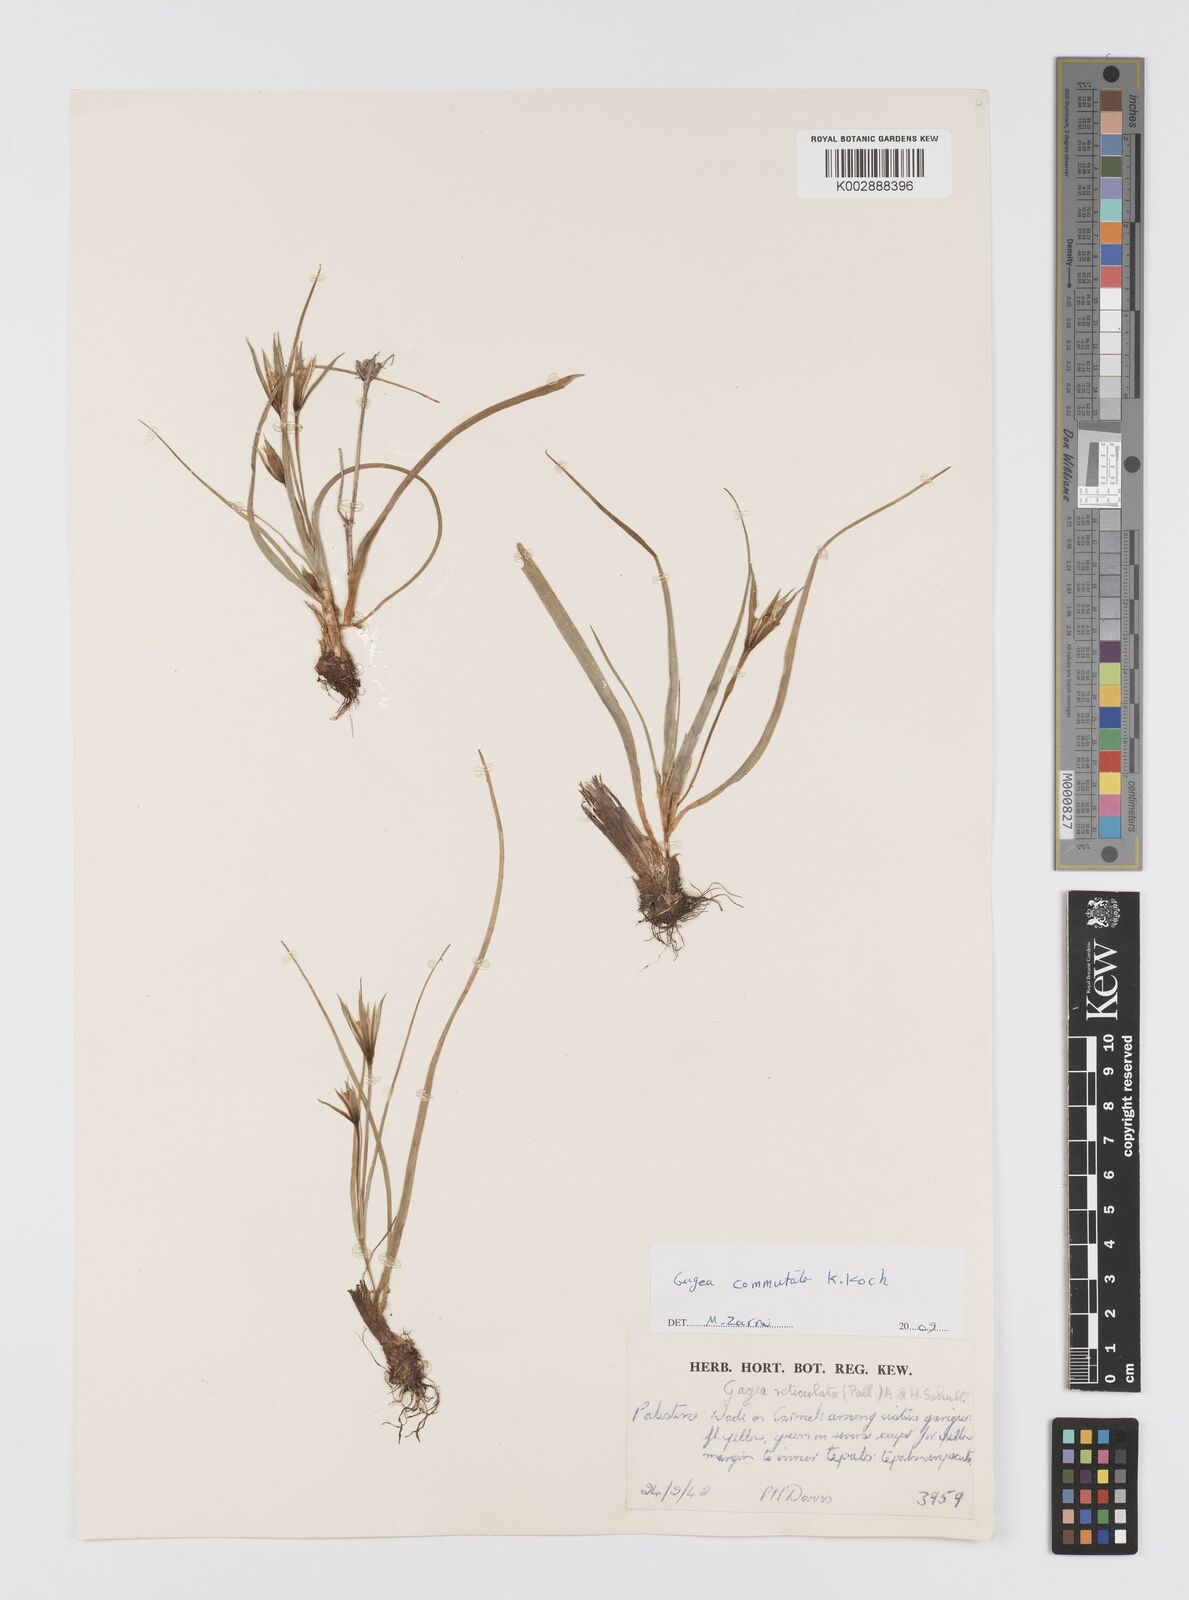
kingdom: Plantae
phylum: Tracheophyta
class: Liliopsida
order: Liliales
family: Liliaceae
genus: Gagea
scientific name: Gagea commutata
